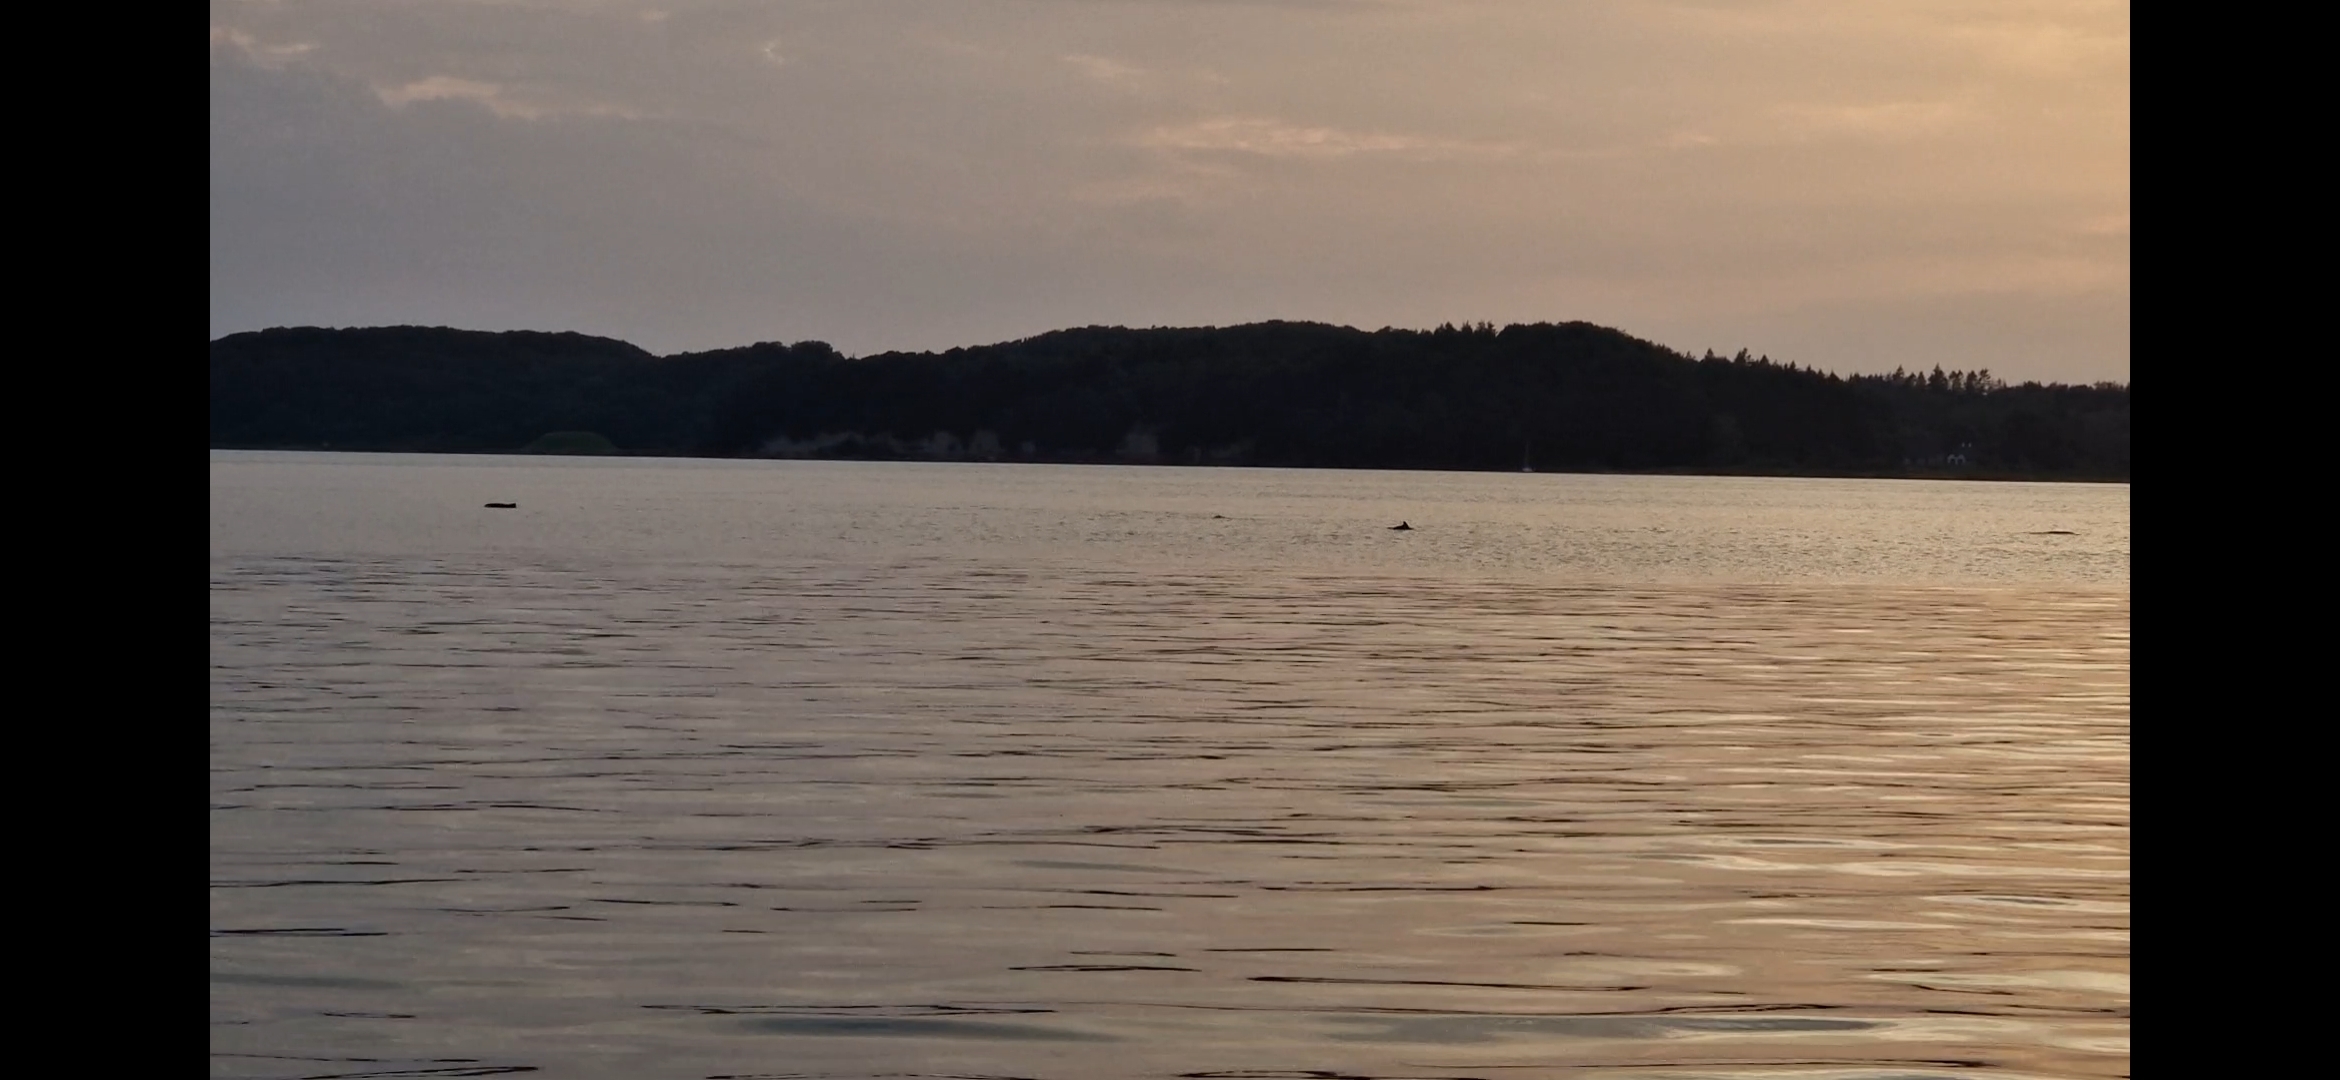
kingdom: Animalia
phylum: Chordata
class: Mammalia
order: Cetacea
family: Phocoenidae
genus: Phocoena
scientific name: Phocoena phocoena
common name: Marsvin
